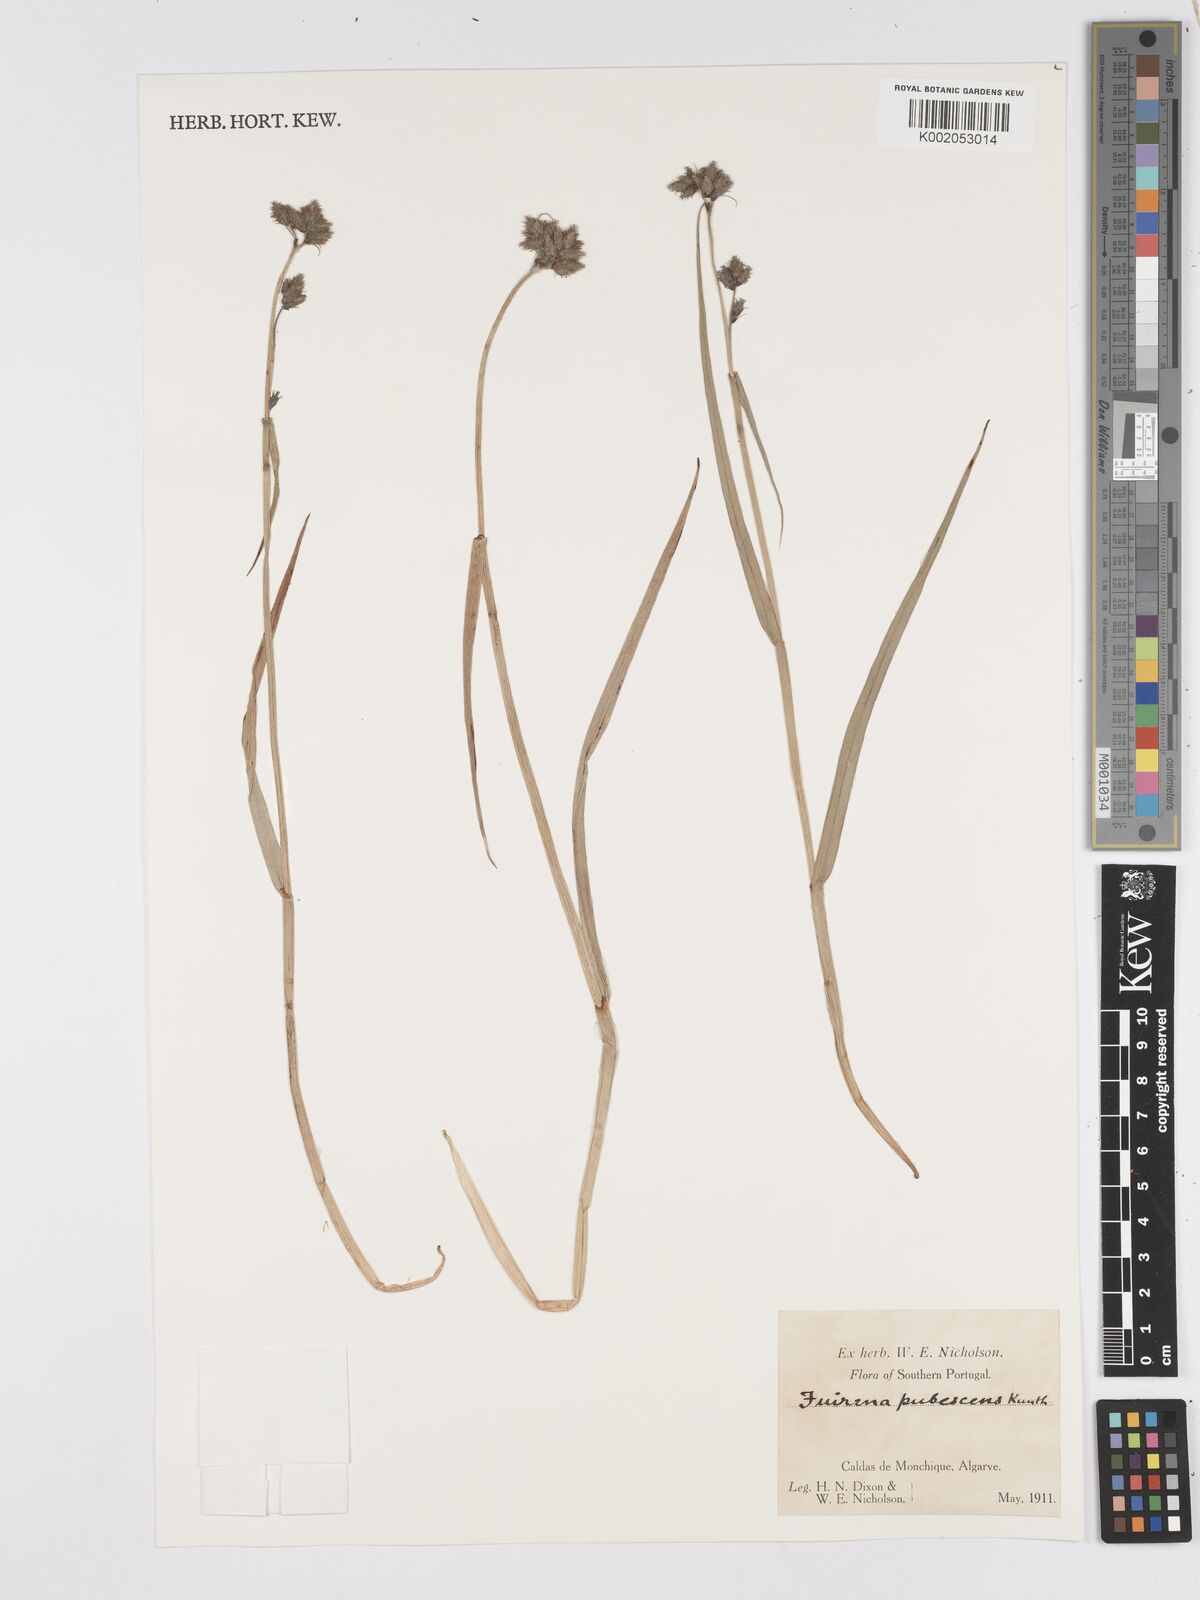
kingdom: Plantae
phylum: Tracheophyta
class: Liliopsida
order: Poales
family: Cyperaceae
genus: Fuirena
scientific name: Fuirena pubescens
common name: Hairy sedge
